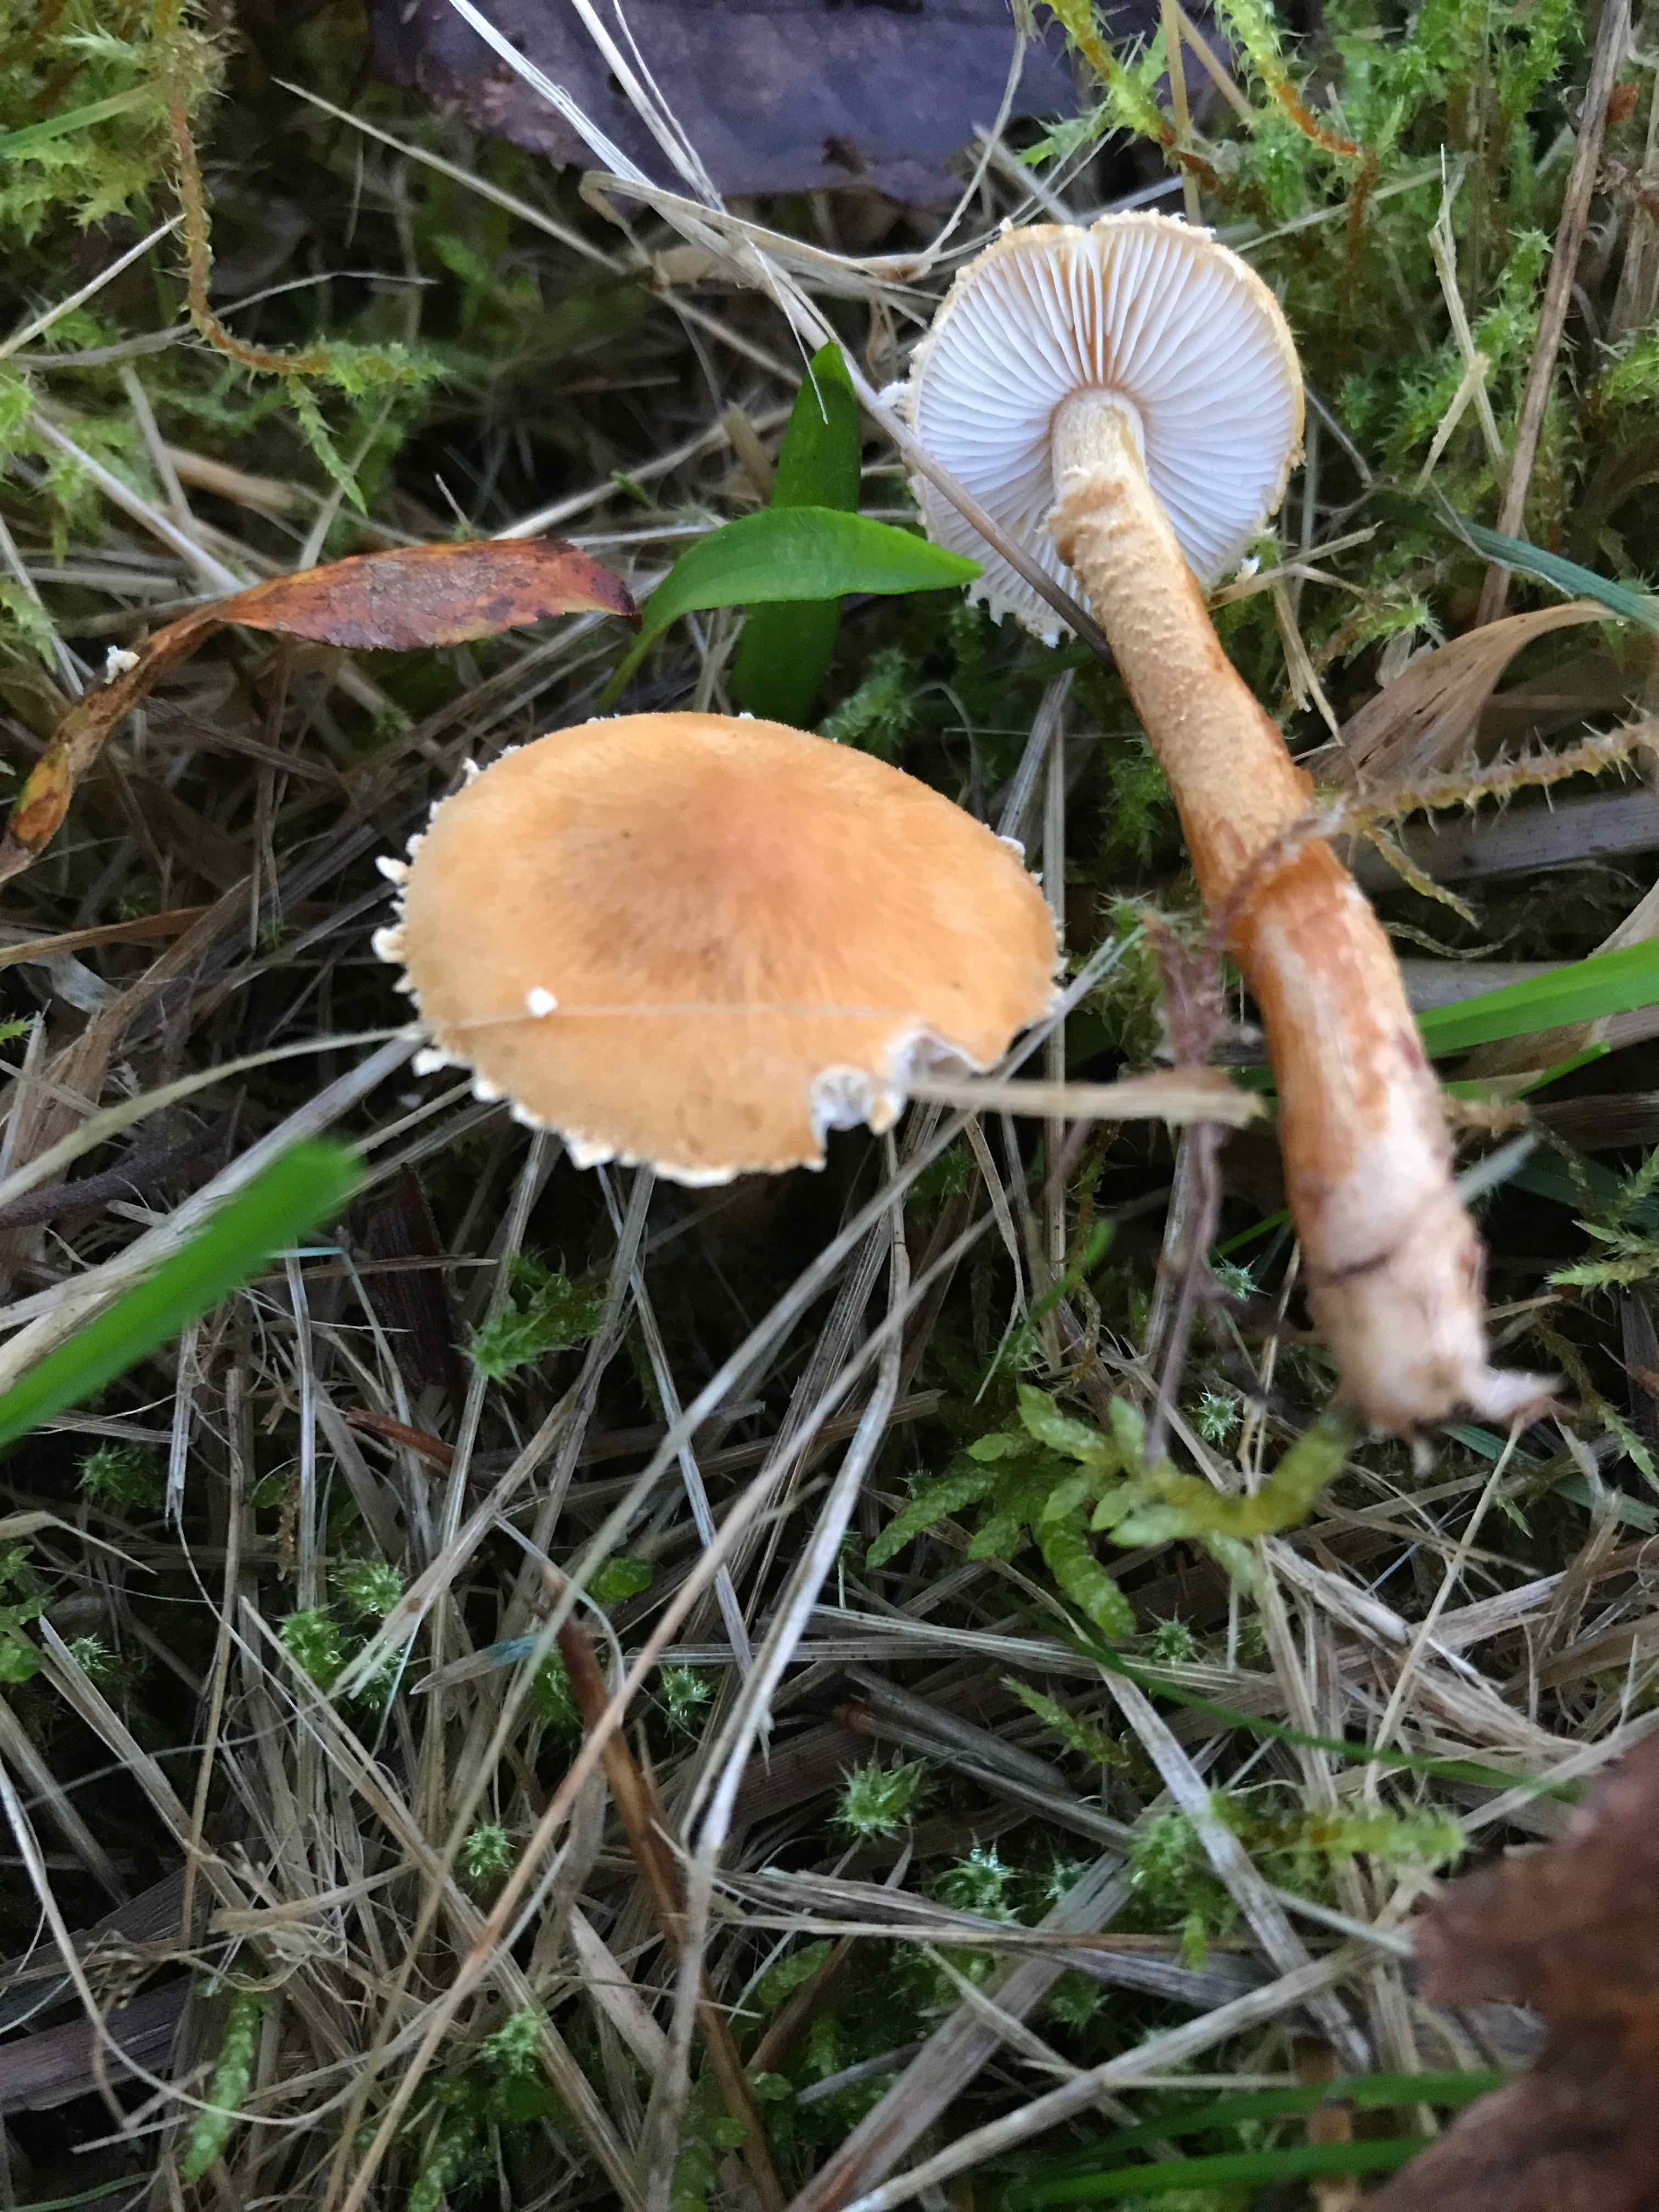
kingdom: Fungi
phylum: Basidiomycota
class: Agaricomycetes
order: Agaricales
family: Tricholomataceae
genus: Cystoderma
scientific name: Cystoderma amianthinum
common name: okkergul grynhat
